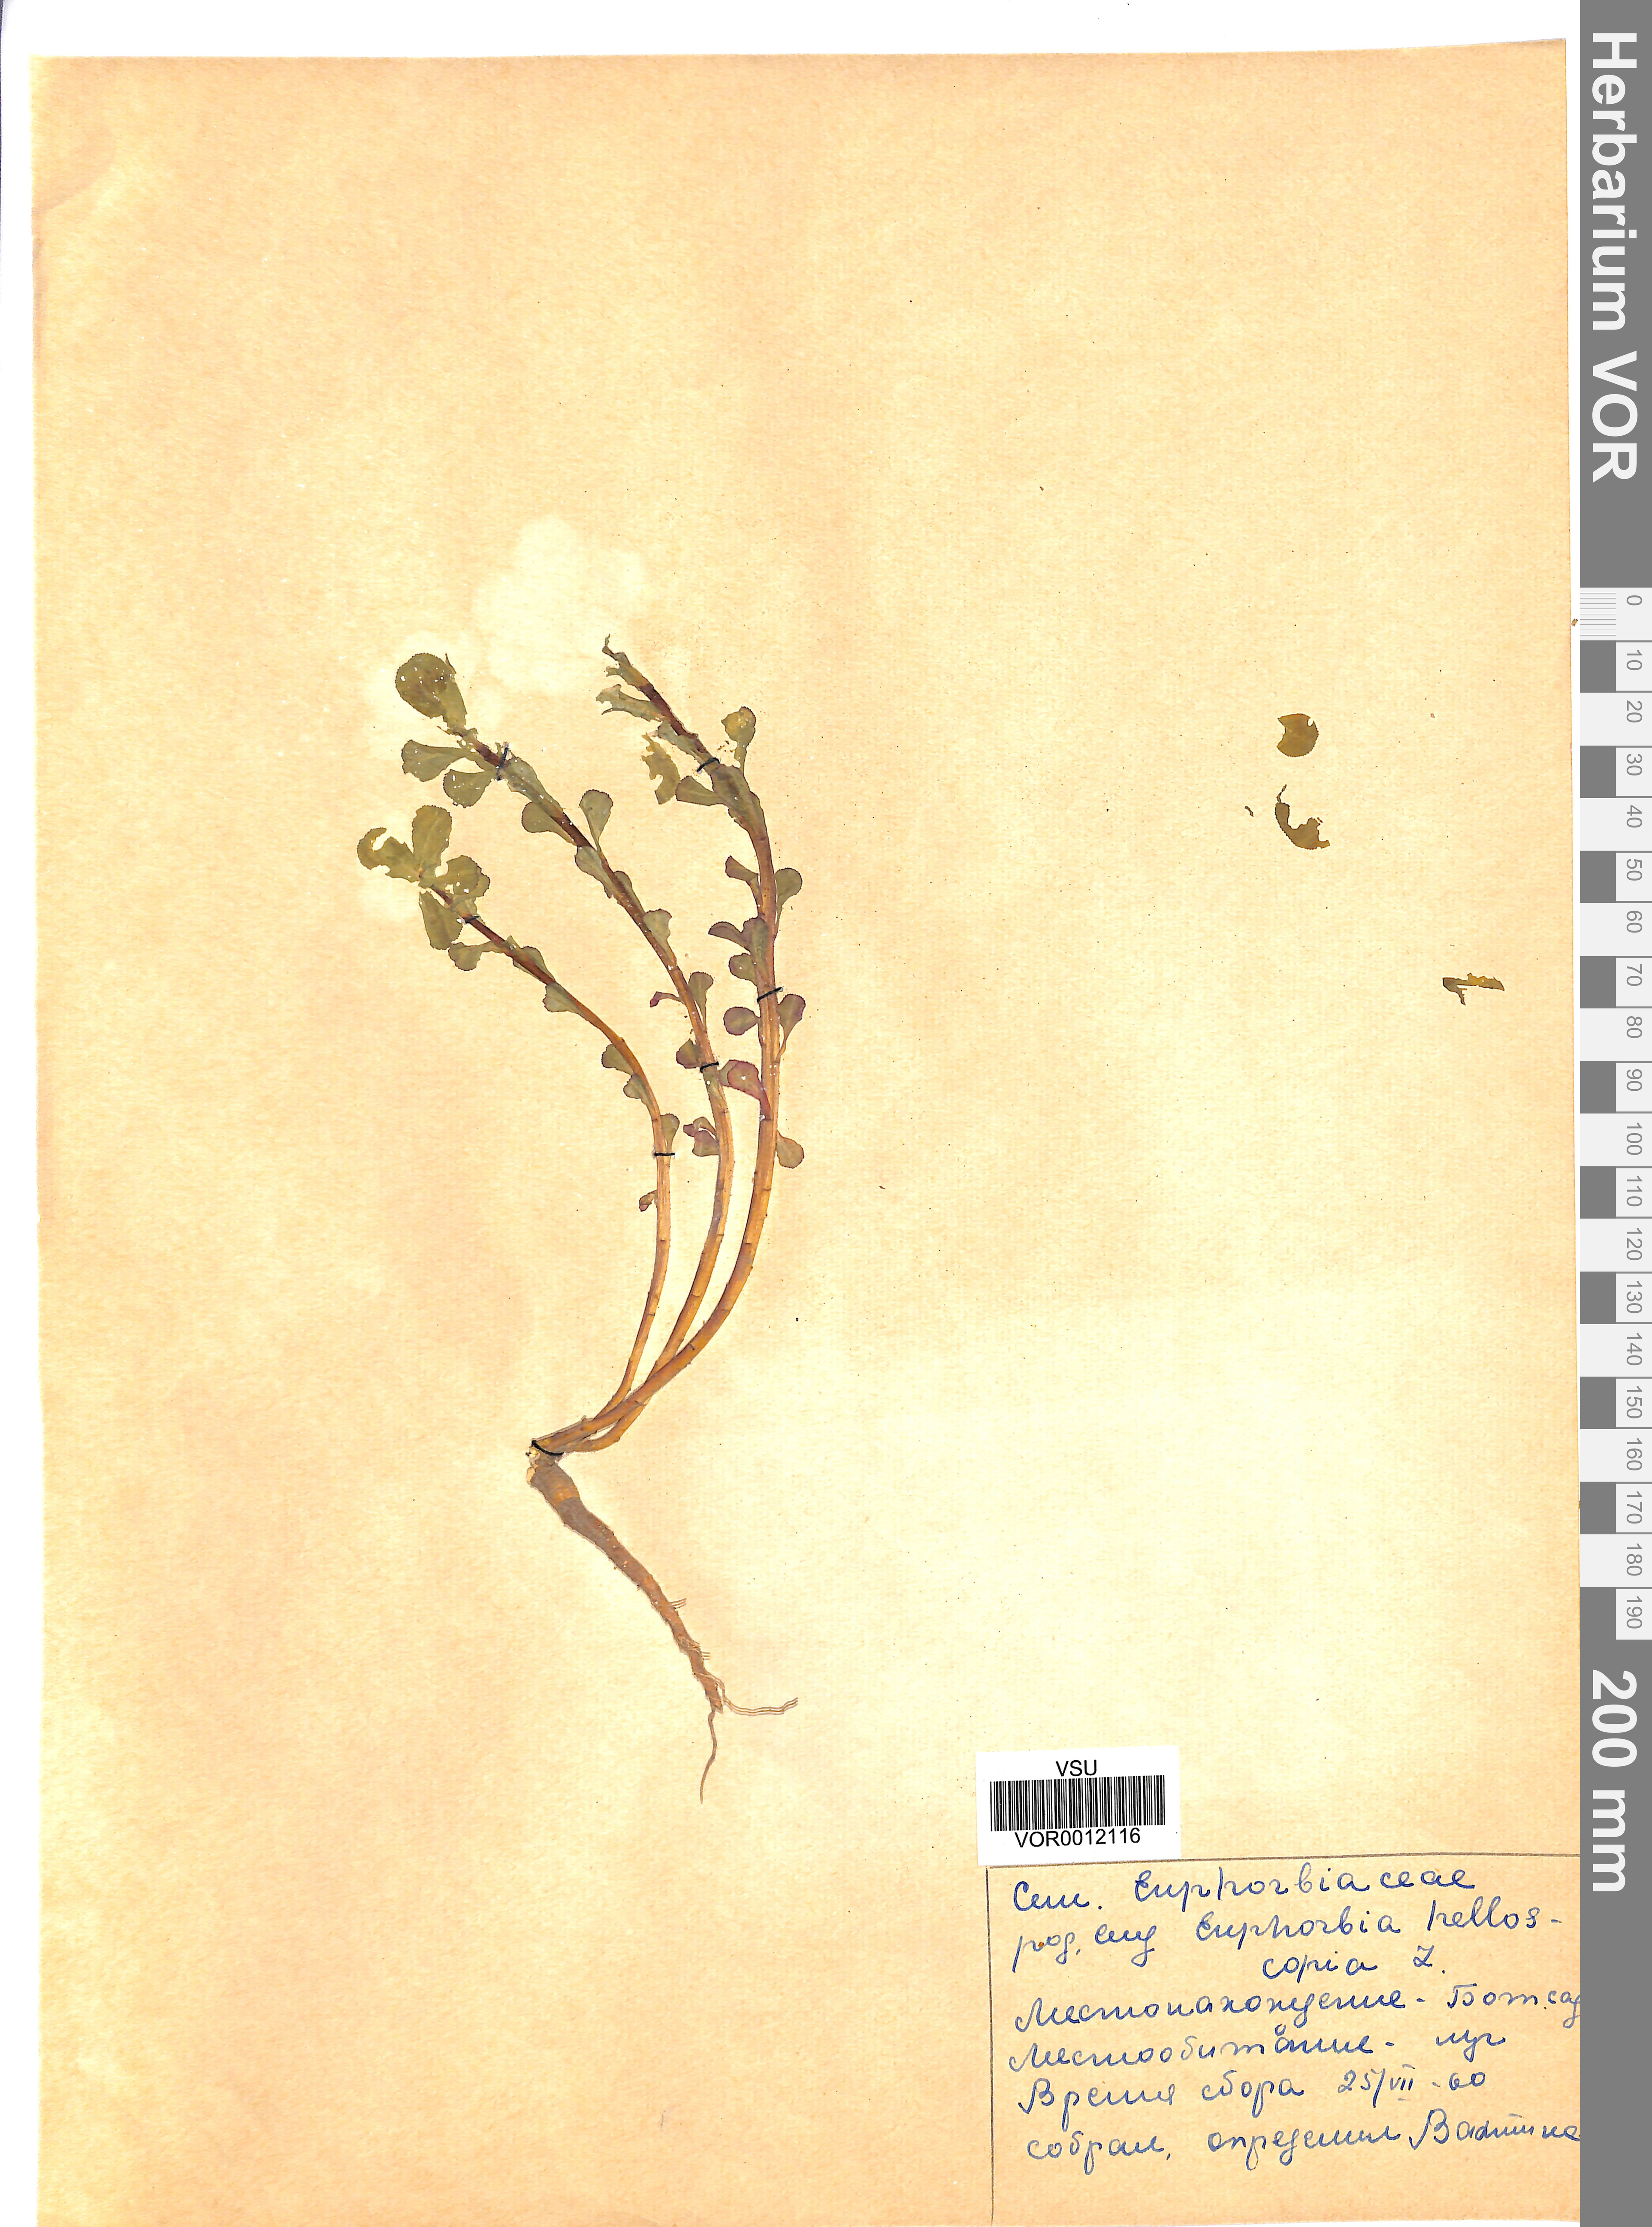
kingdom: Plantae
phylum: Tracheophyta
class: Magnoliopsida
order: Malpighiales
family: Euphorbiaceae
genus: Euphorbia
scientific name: Euphorbia helioscopia
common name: Sun spurge
